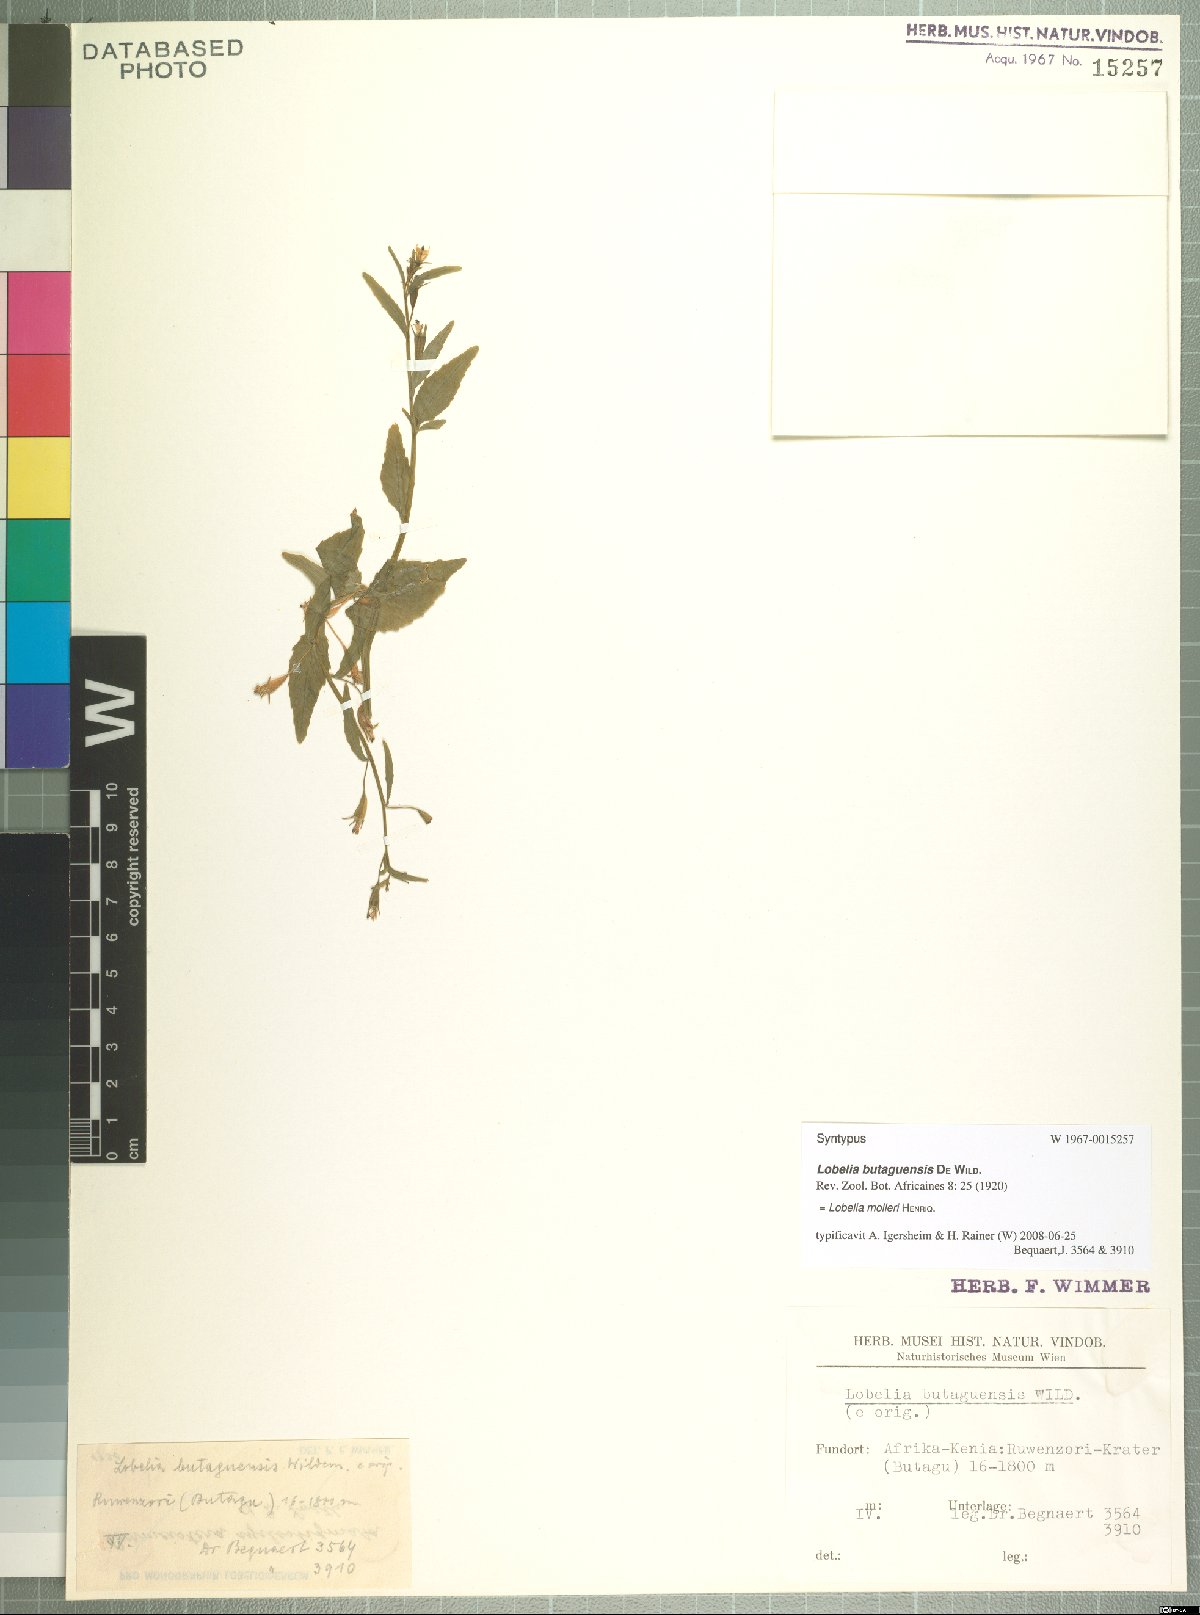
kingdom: Plantae
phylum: Tracheophyta
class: Magnoliopsida
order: Asterales
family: Campanulaceae
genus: Lobelia
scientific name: Lobelia molleri
